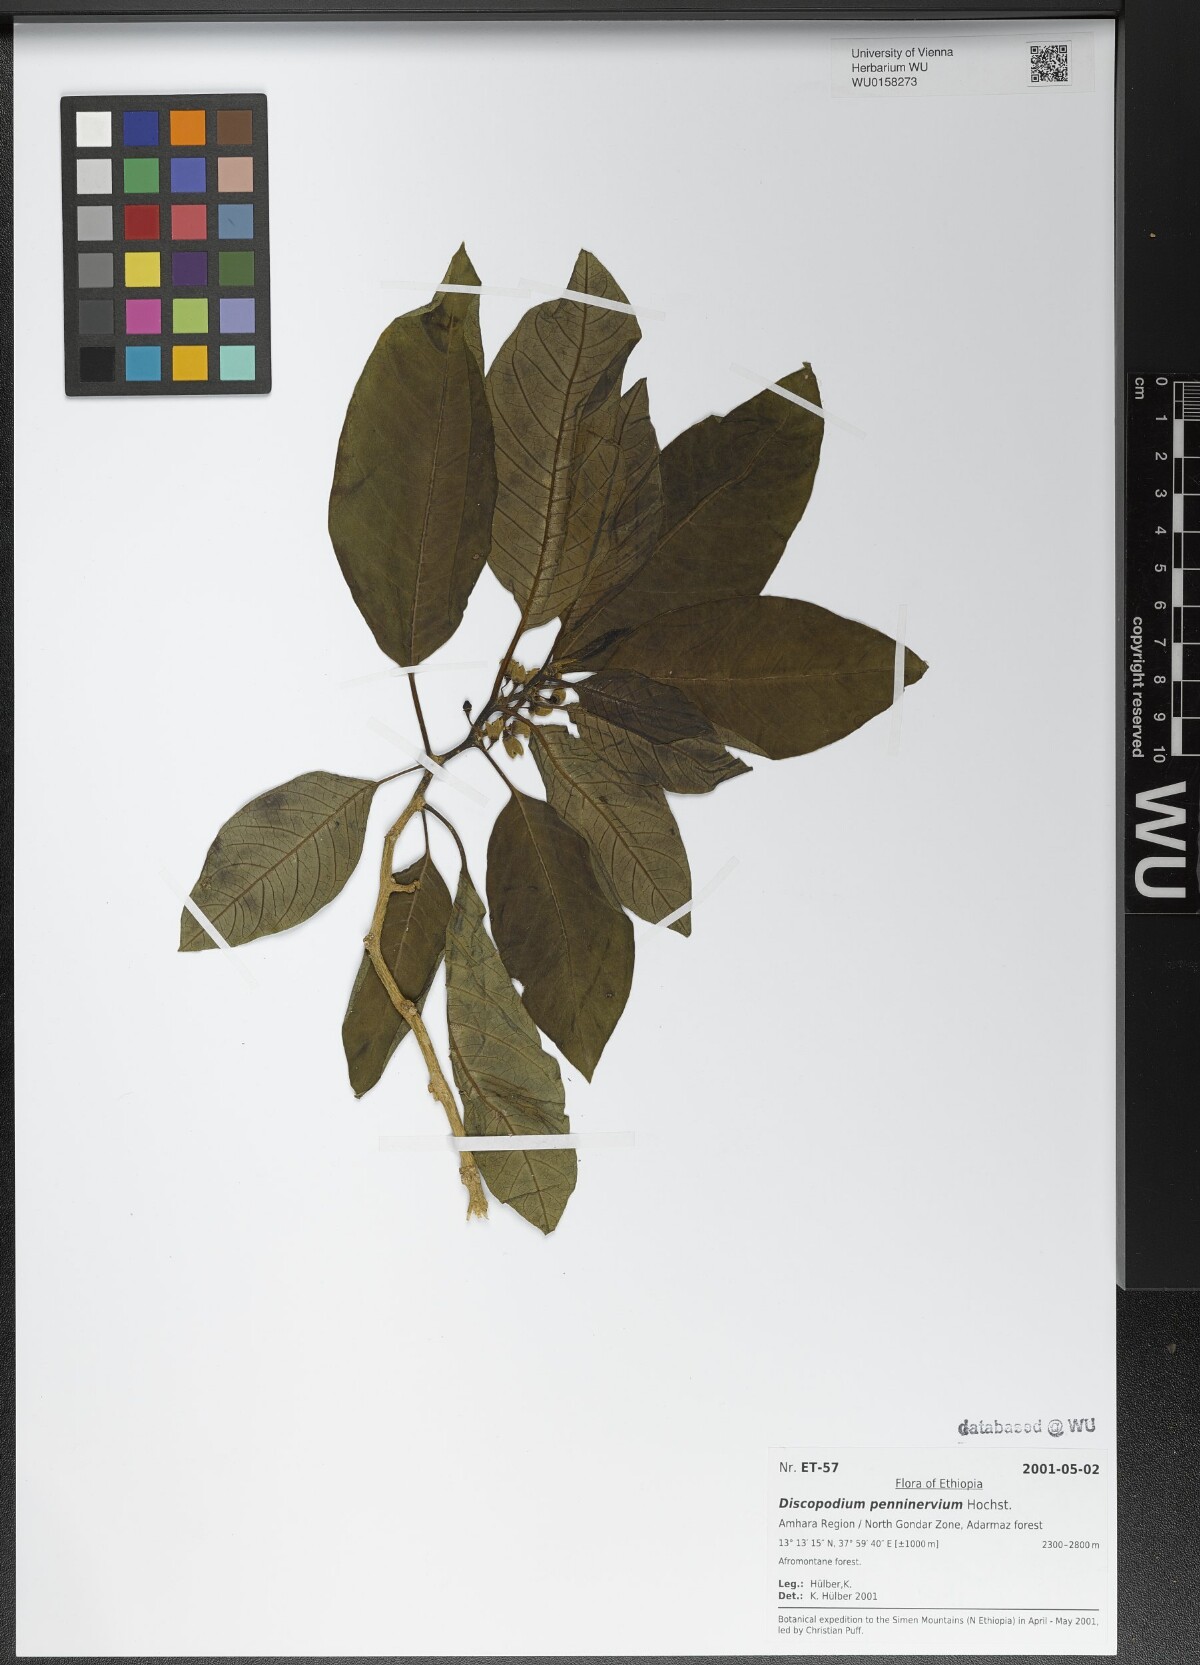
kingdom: Plantae
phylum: Tracheophyta
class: Magnoliopsida
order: Solanales
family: Solanaceae
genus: Discopodium
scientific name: Discopodium penninervium
